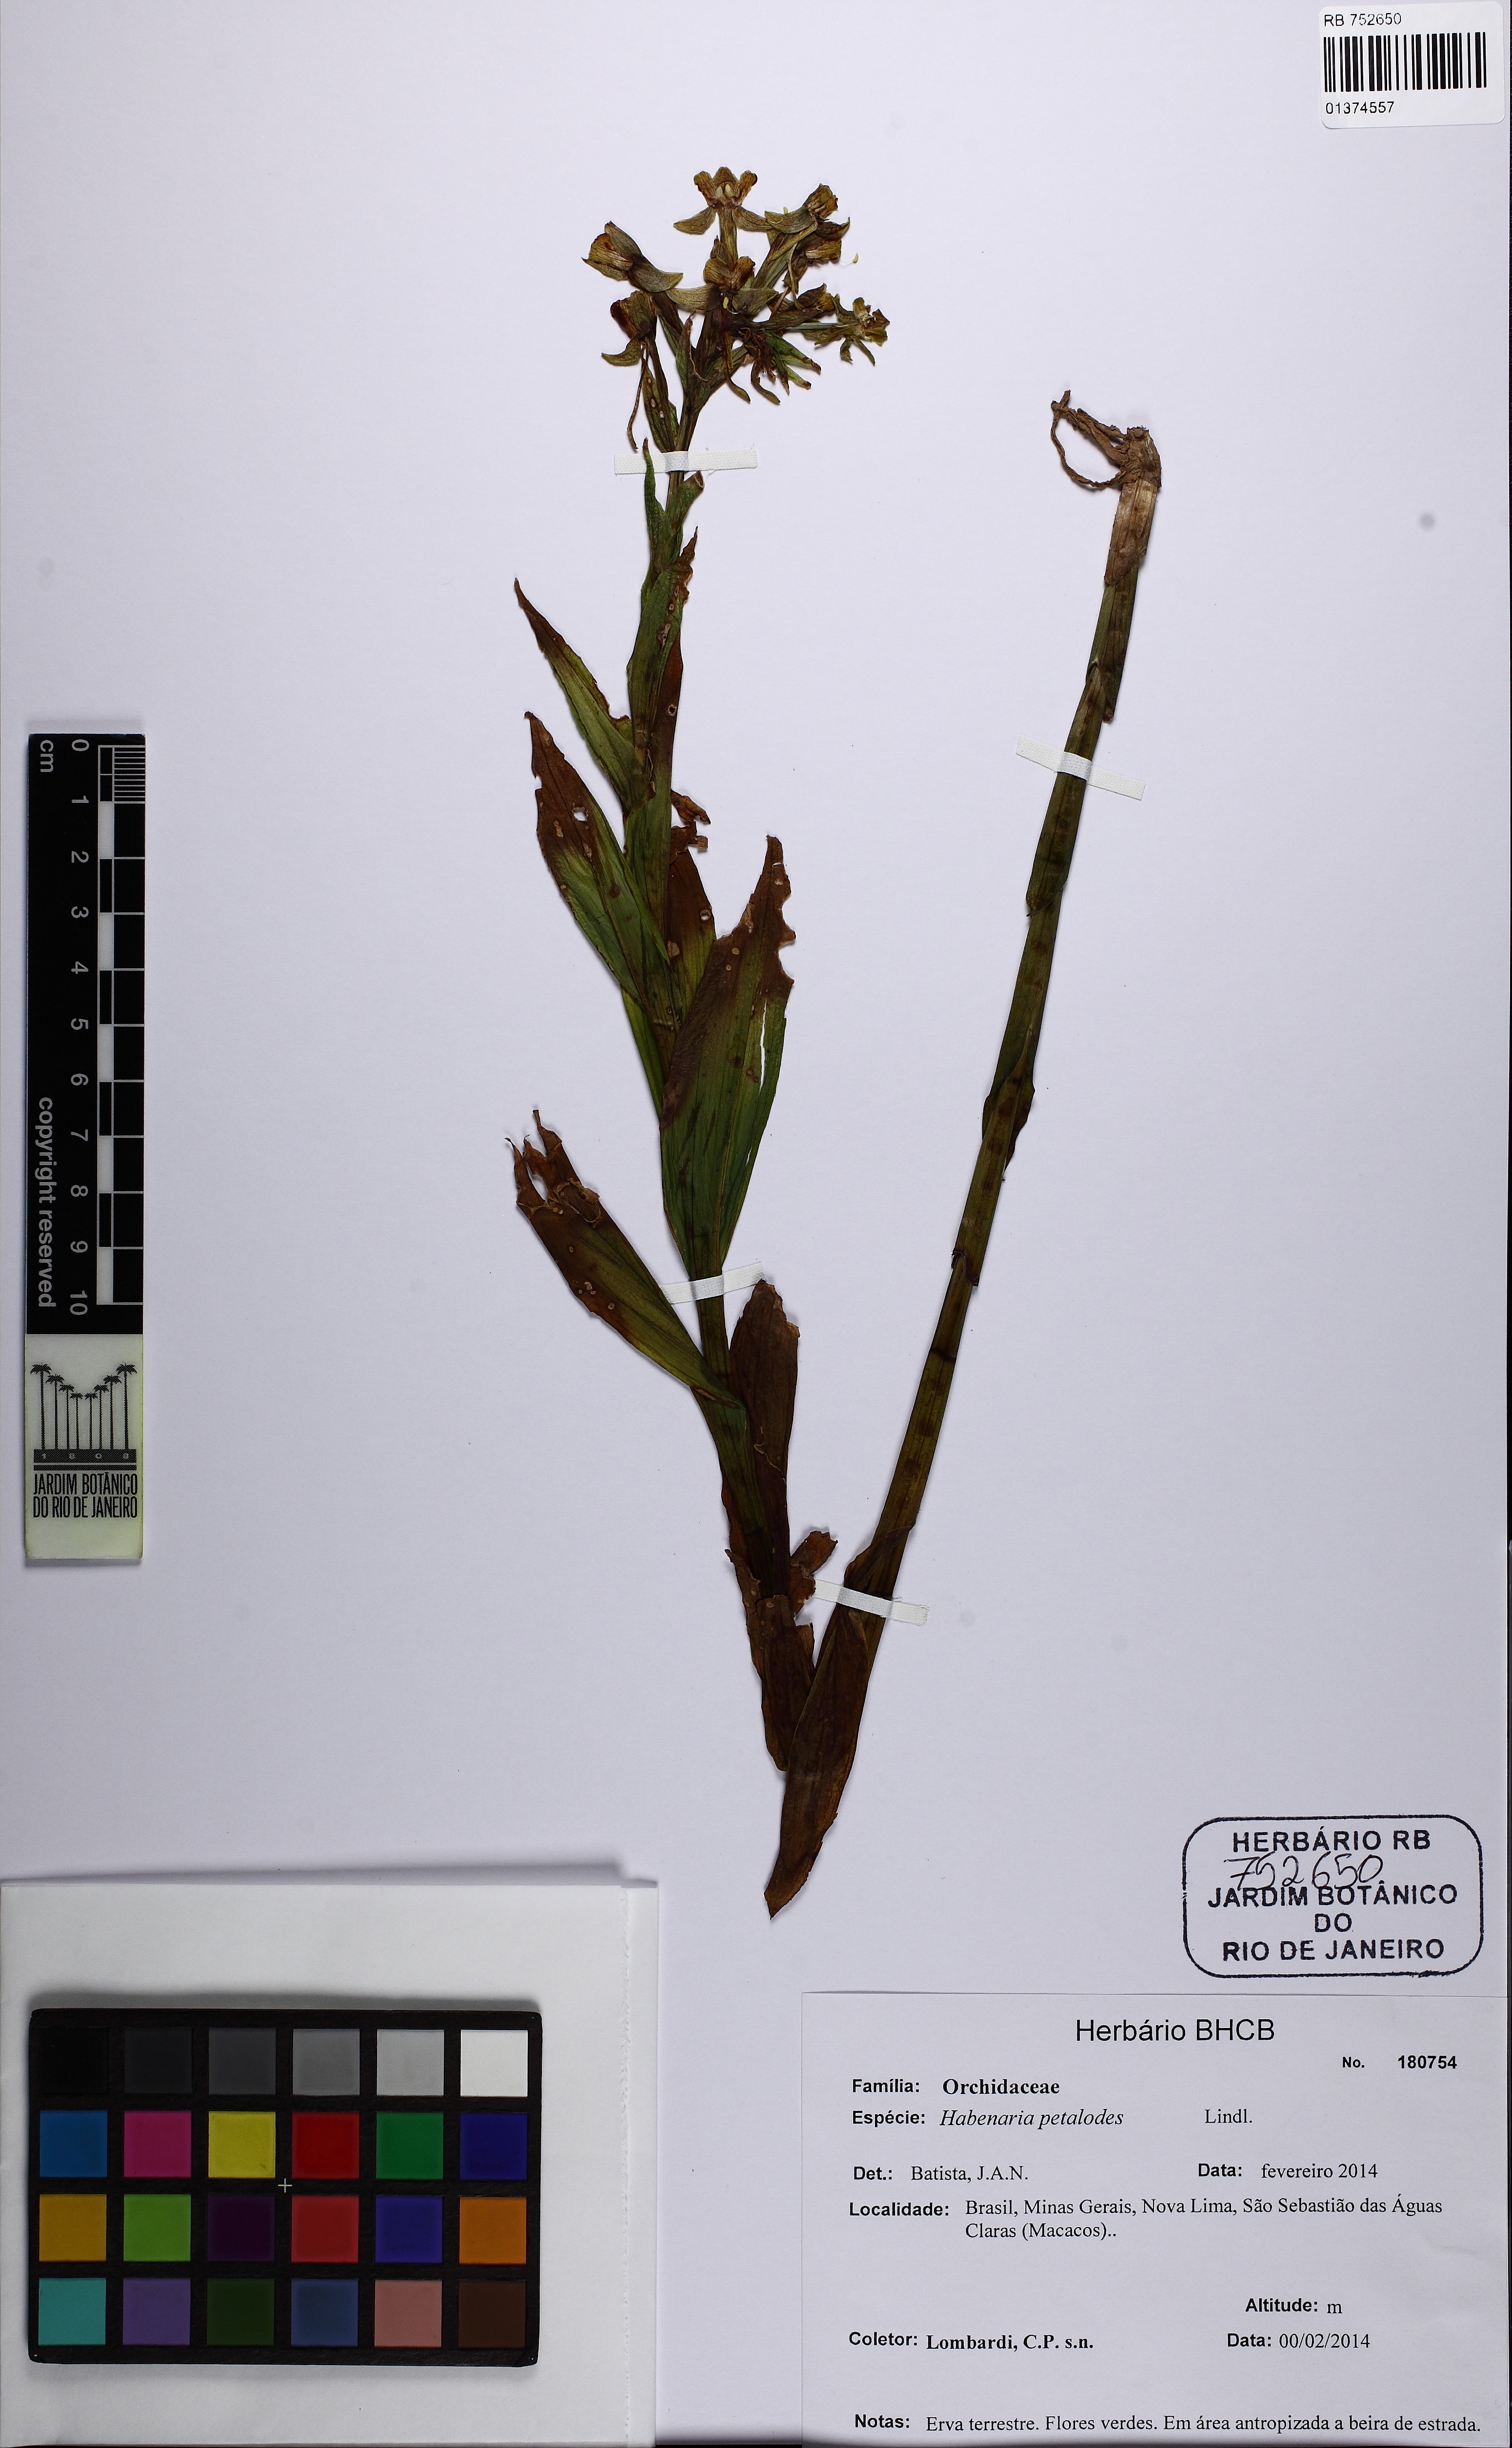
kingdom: Plantae
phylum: Tracheophyta
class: Liliopsida
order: Asparagales
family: Orchidaceae
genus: Habenaria
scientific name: Habenaria petalodes
